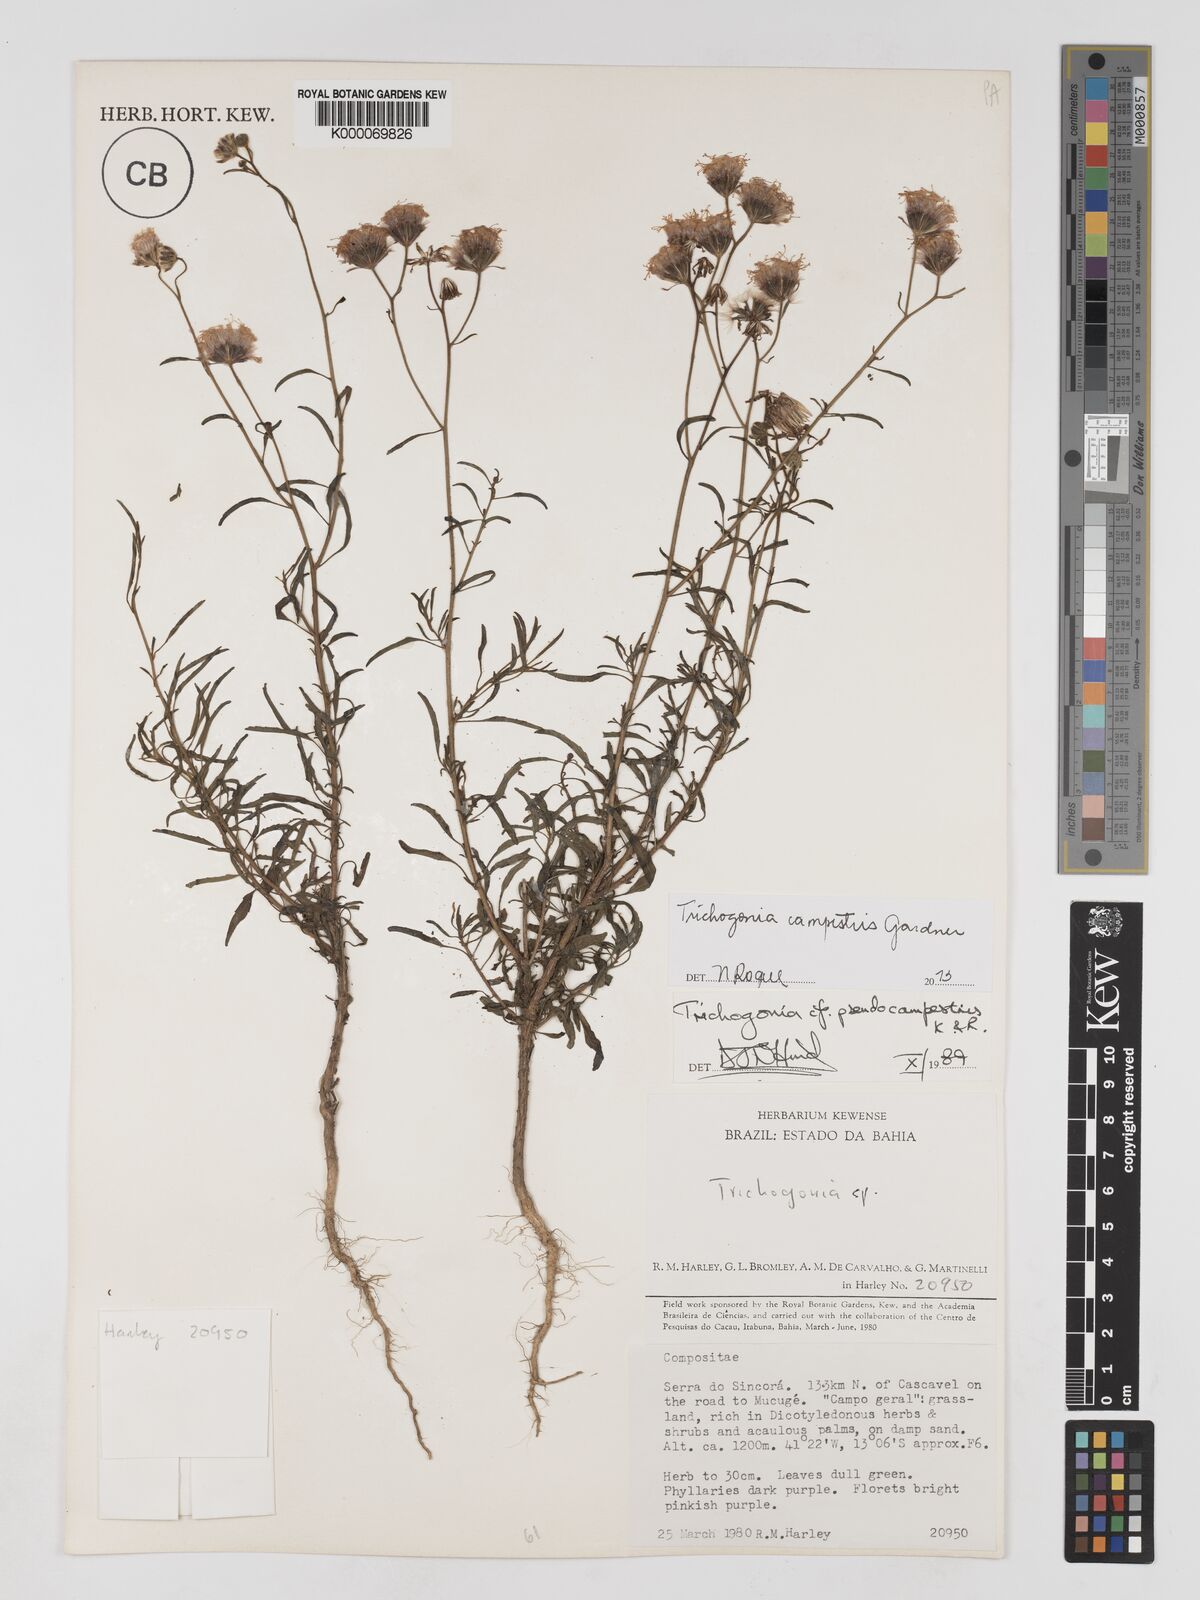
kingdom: Plantae
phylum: Tracheophyta
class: Magnoliopsida
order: Asterales
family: Asteraceae
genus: Trichogonia
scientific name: Trichogonia campestris
